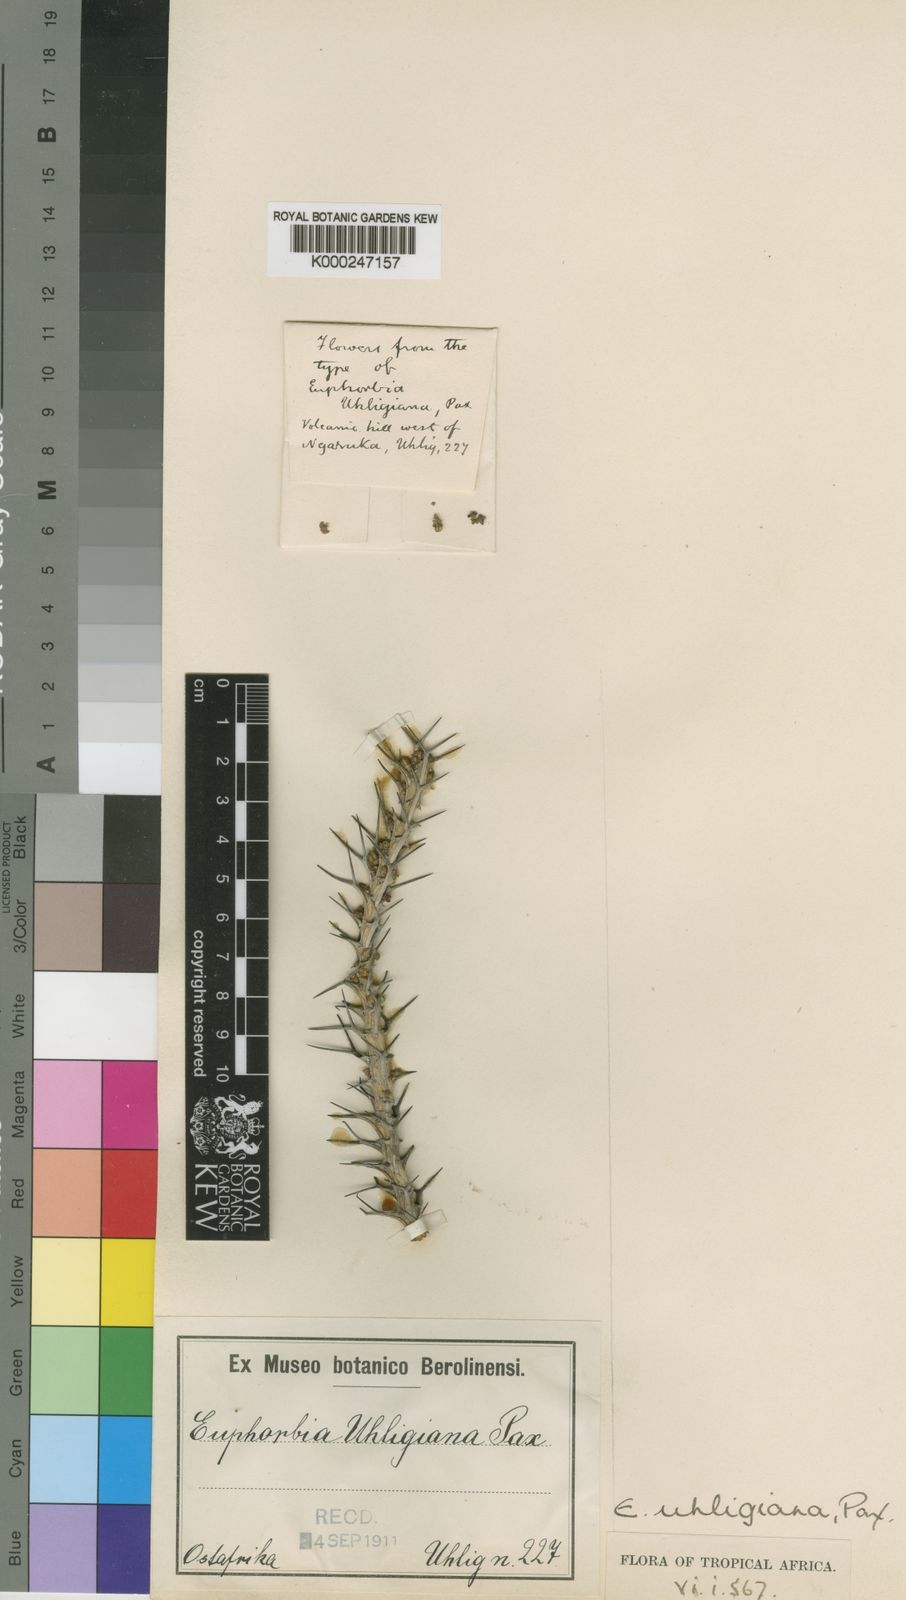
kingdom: Plantae
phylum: Tracheophyta
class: Magnoliopsida
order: Malpighiales
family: Euphorbiaceae
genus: Euphorbia
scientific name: Euphorbia uhligiana
